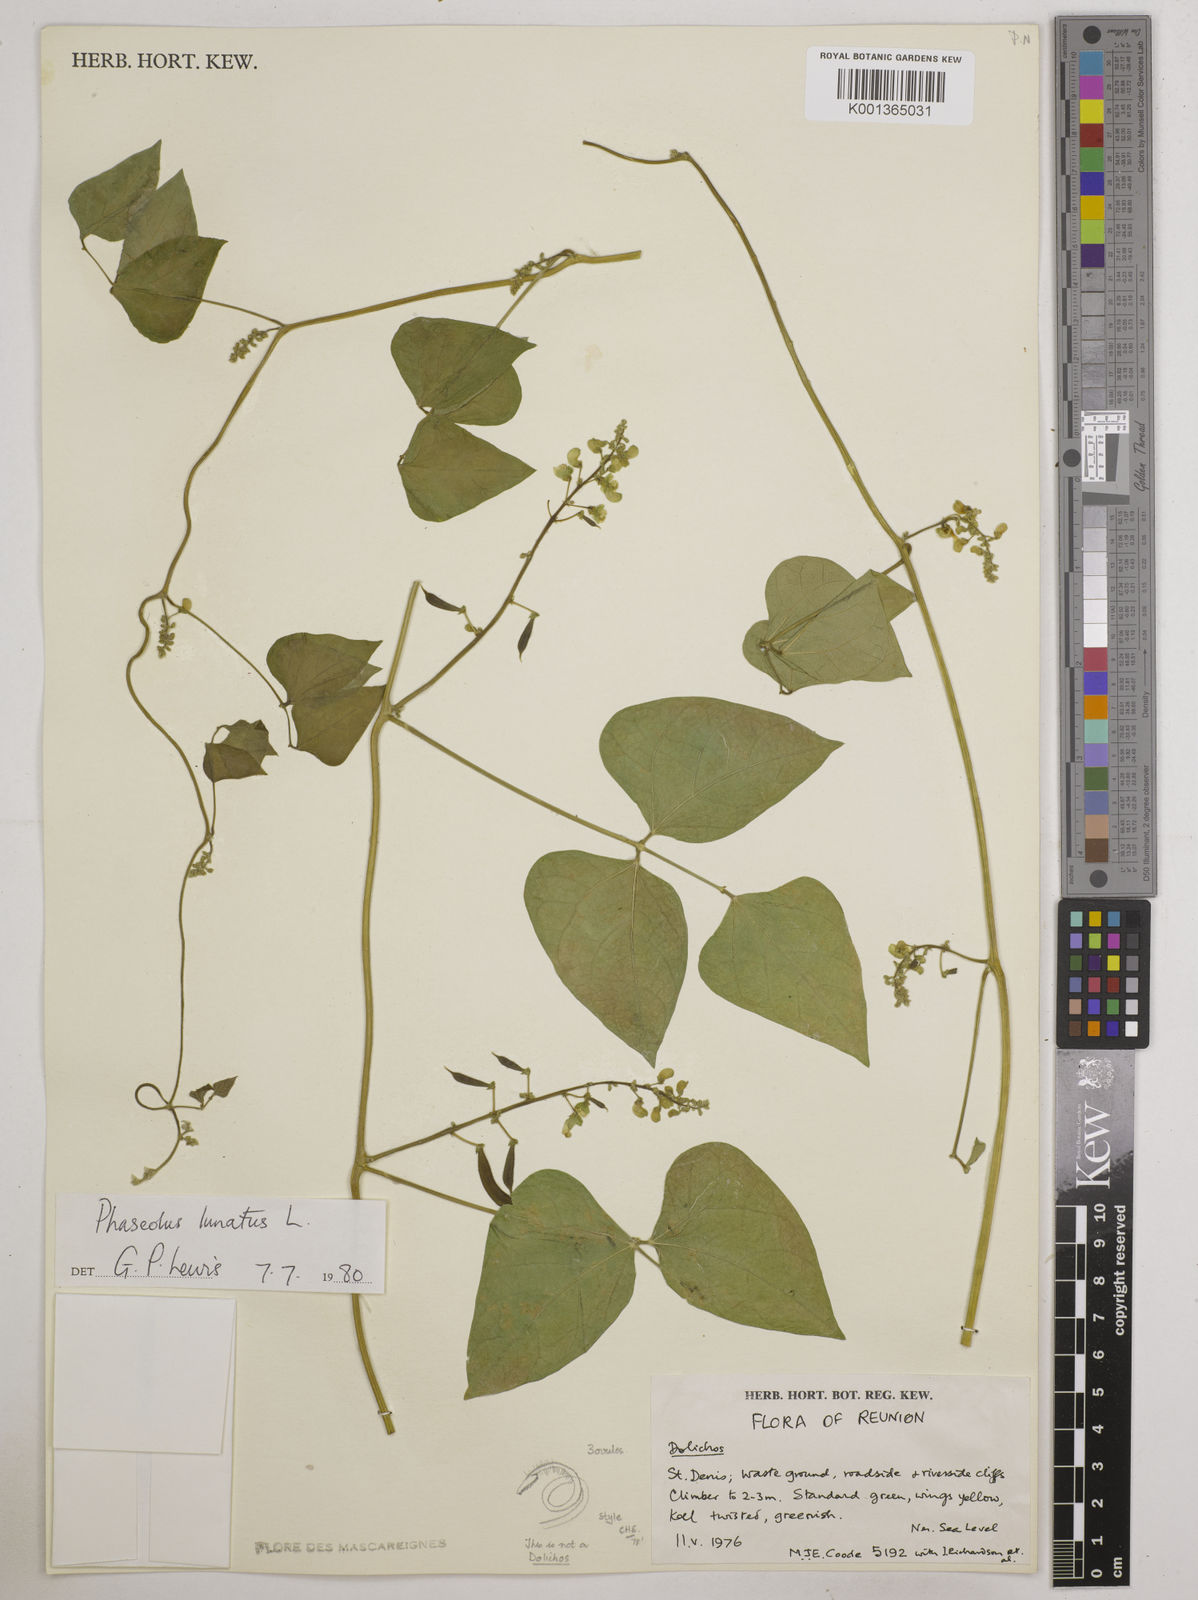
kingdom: Plantae
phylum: Tracheophyta
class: Magnoliopsida
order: Fabales
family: Fabaceae
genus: Phaseolus
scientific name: Phaseolus lunatus
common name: Sieva bean
